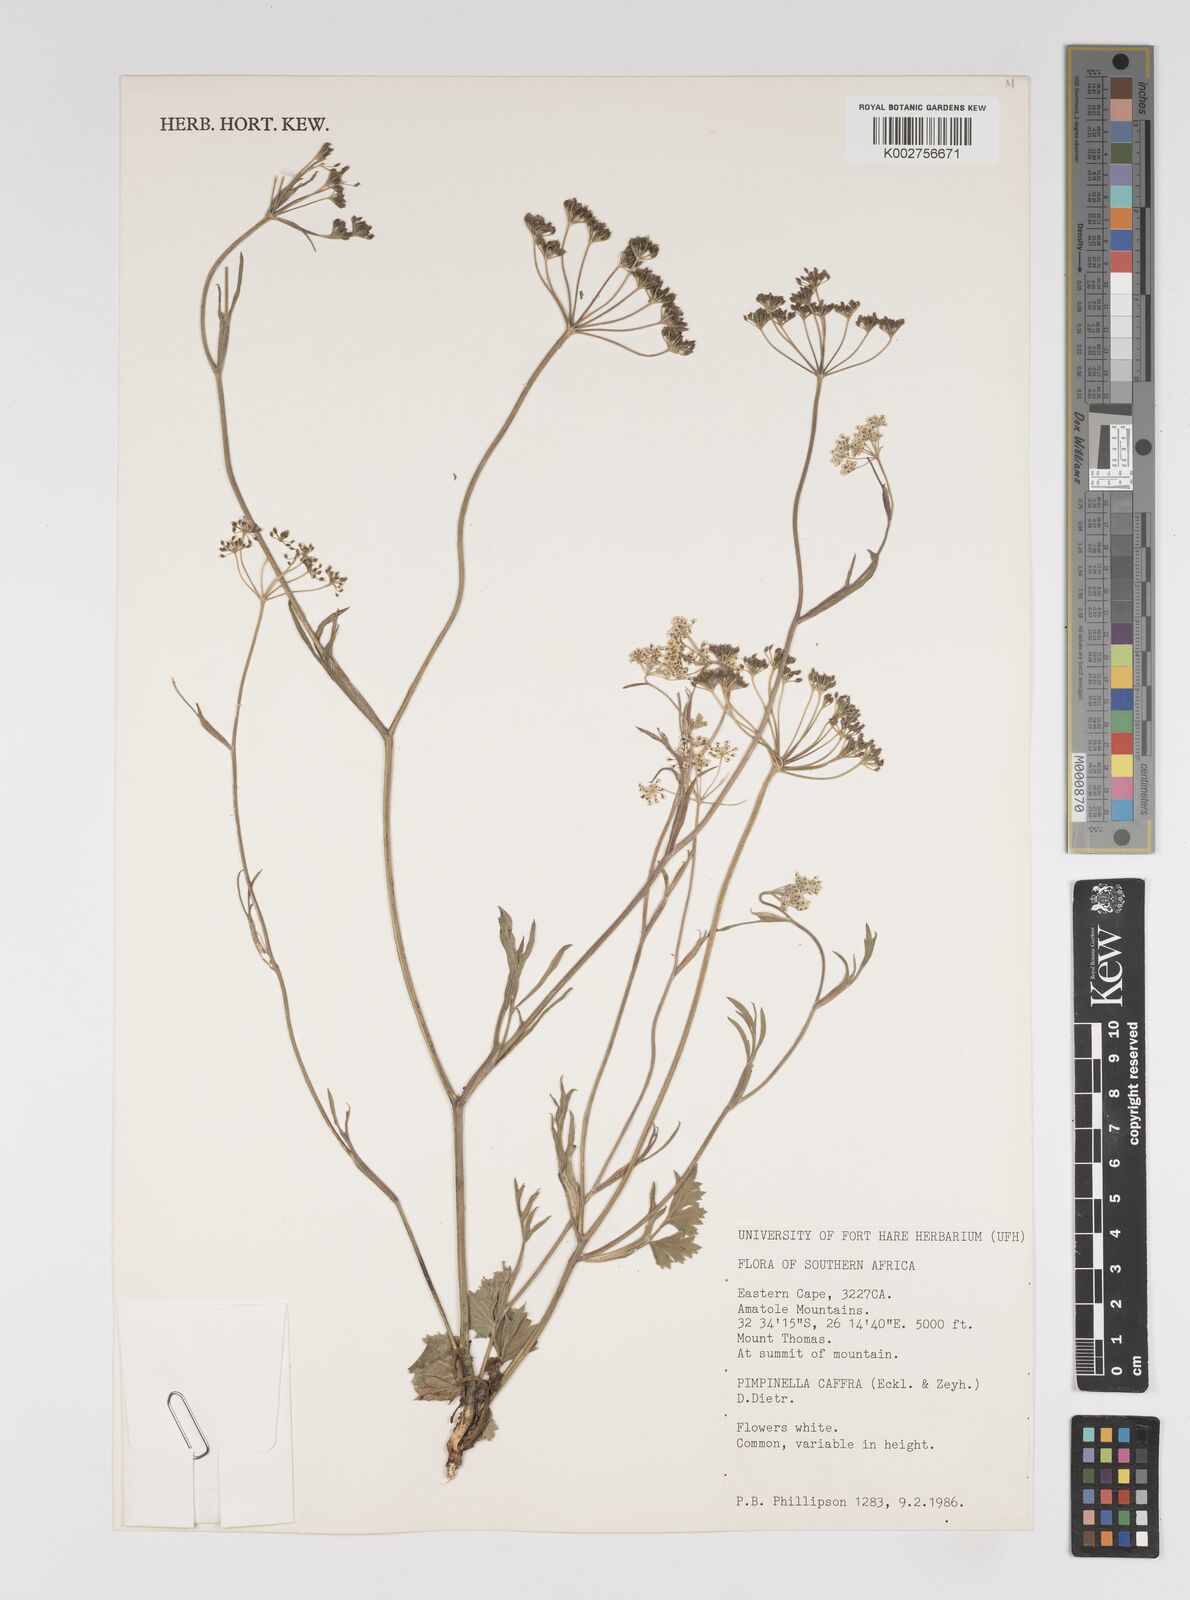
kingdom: Plantae
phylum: Tracheophyta
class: Magnoliopsida
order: Apiales
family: Apiaceae
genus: Pimpinella
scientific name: Pimpinella
